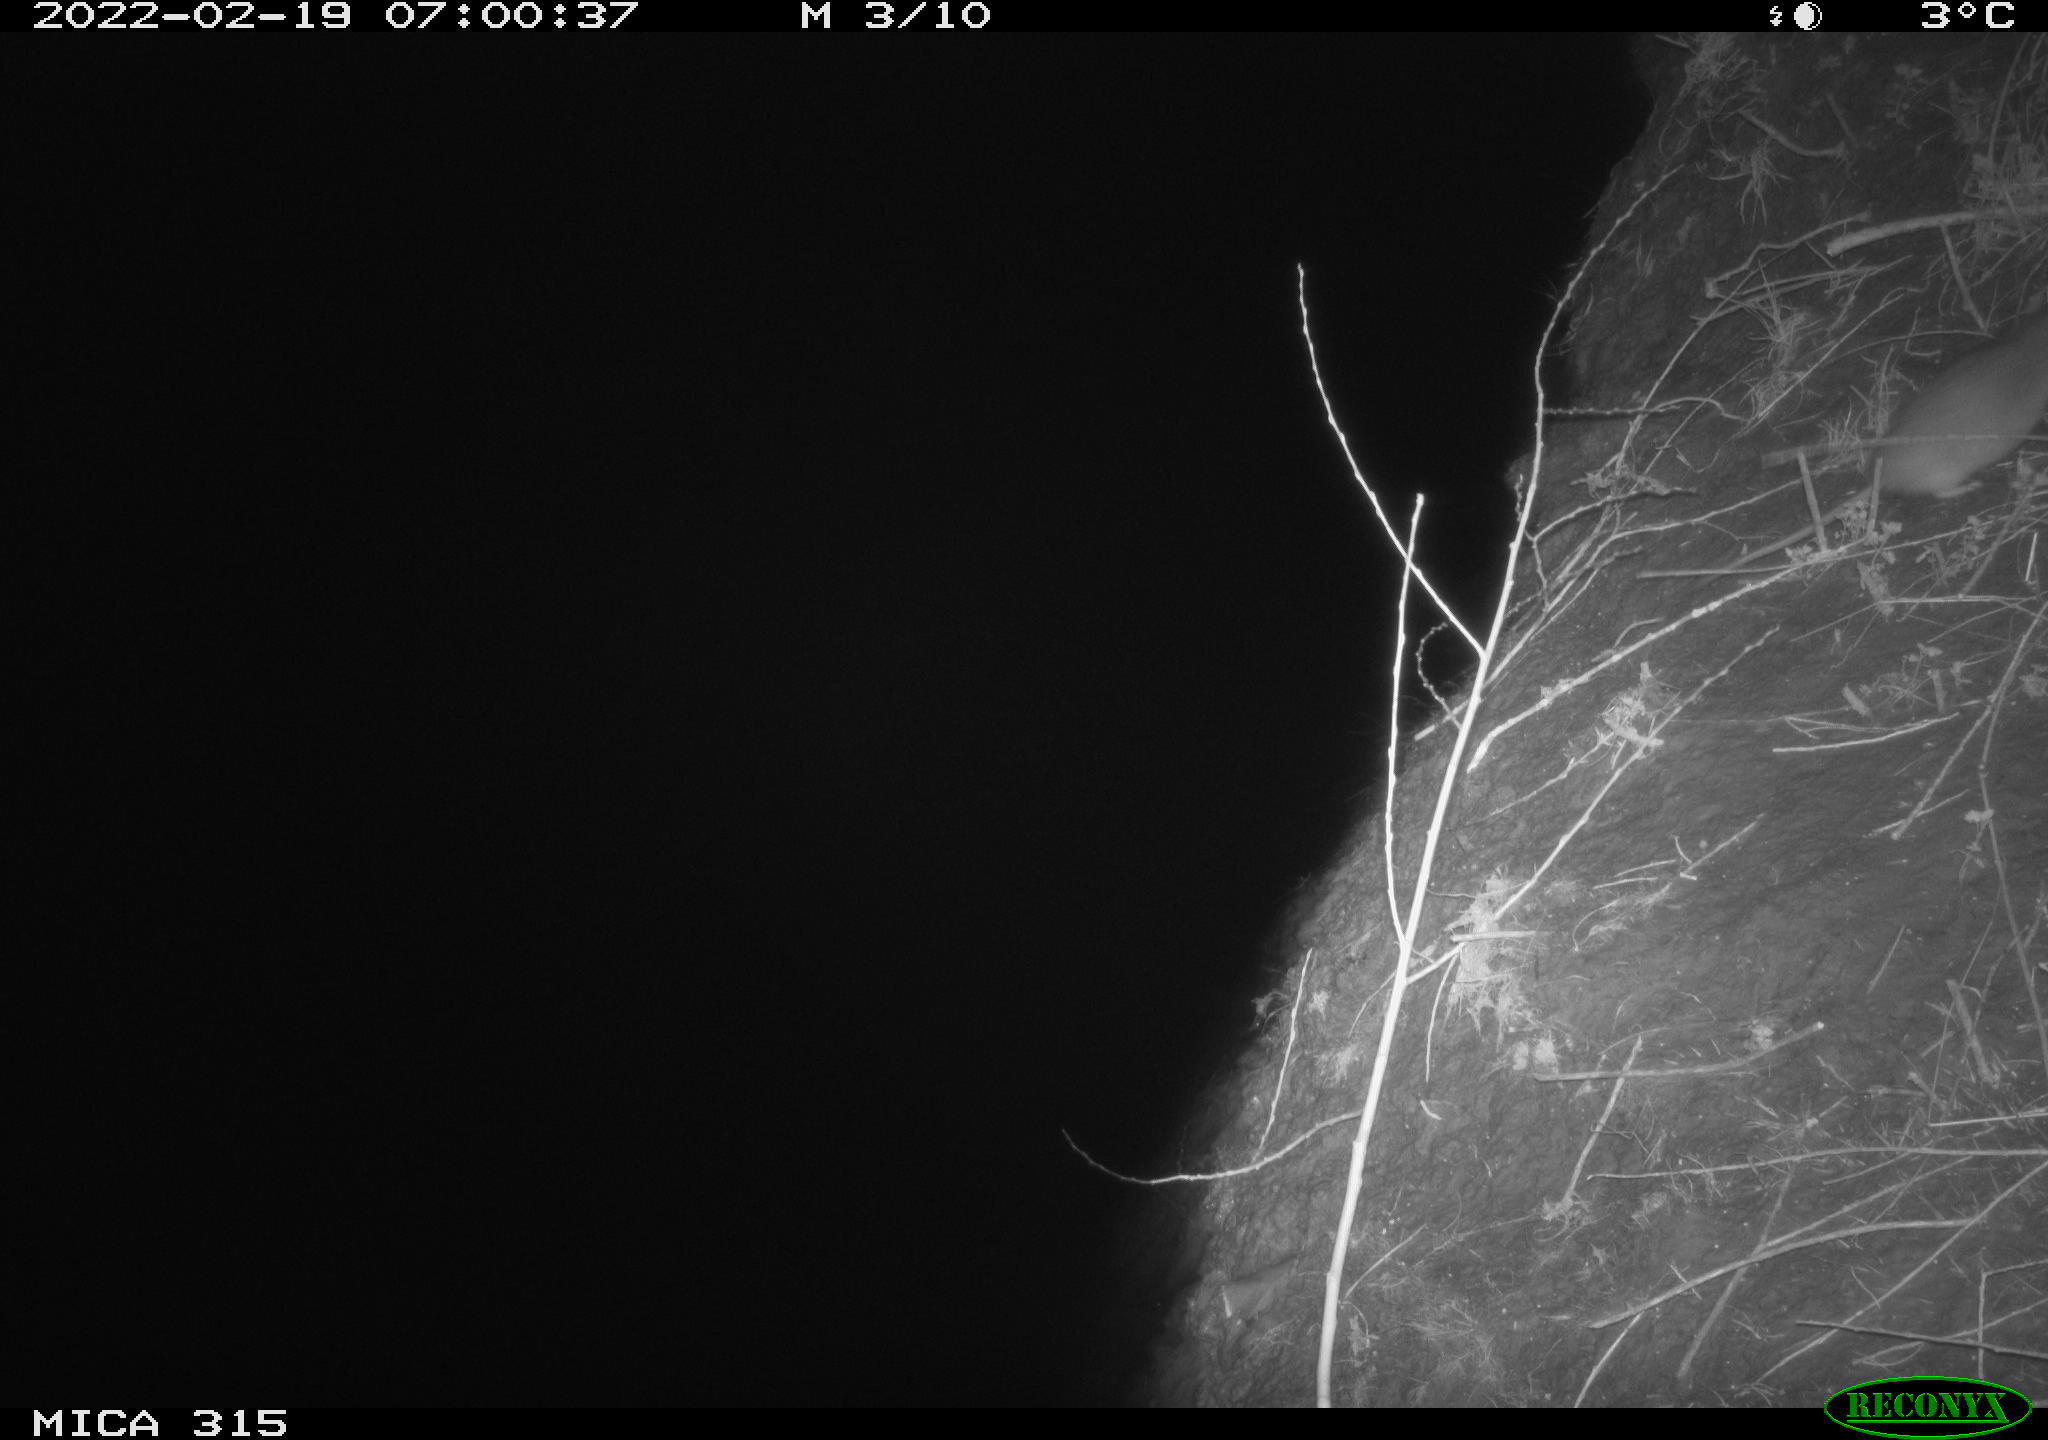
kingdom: Animalia
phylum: Chordata
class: Mammalia
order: Rodentia
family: Muridae
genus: Rattus
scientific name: Rattus norvegicus
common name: Brown rat
